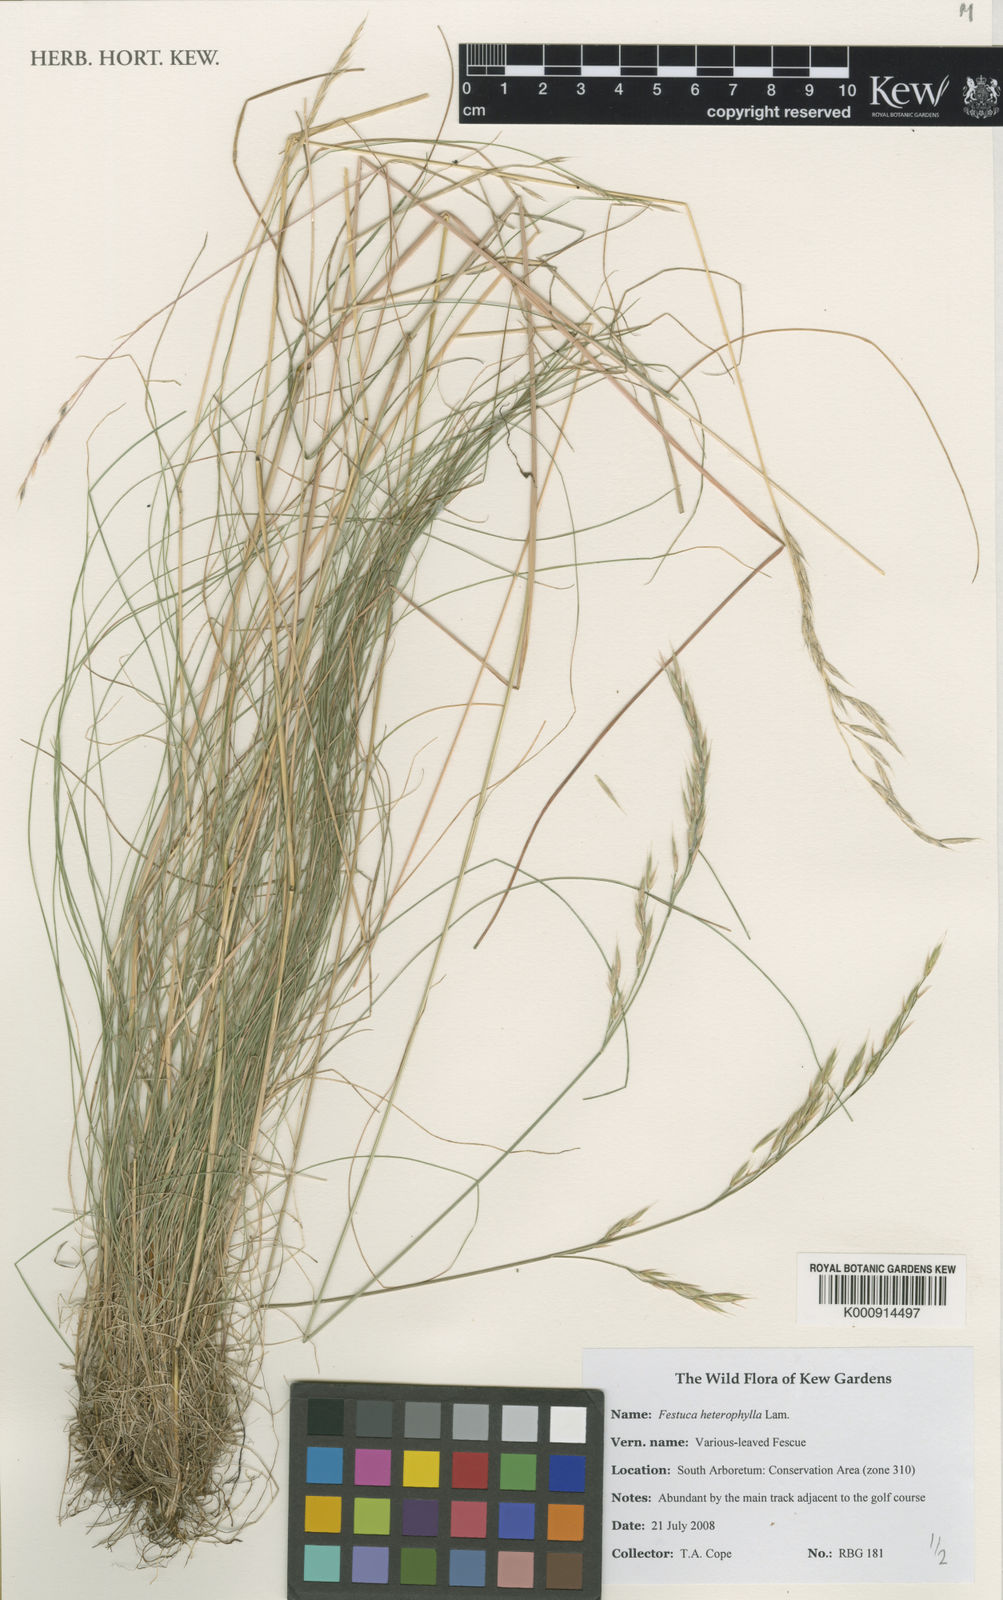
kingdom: Plantae
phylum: Tracheophyta
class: Liliopsida
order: Poales
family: Poaceae
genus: Festuca
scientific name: Festuca heterophylla
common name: Various-leaved fescue
